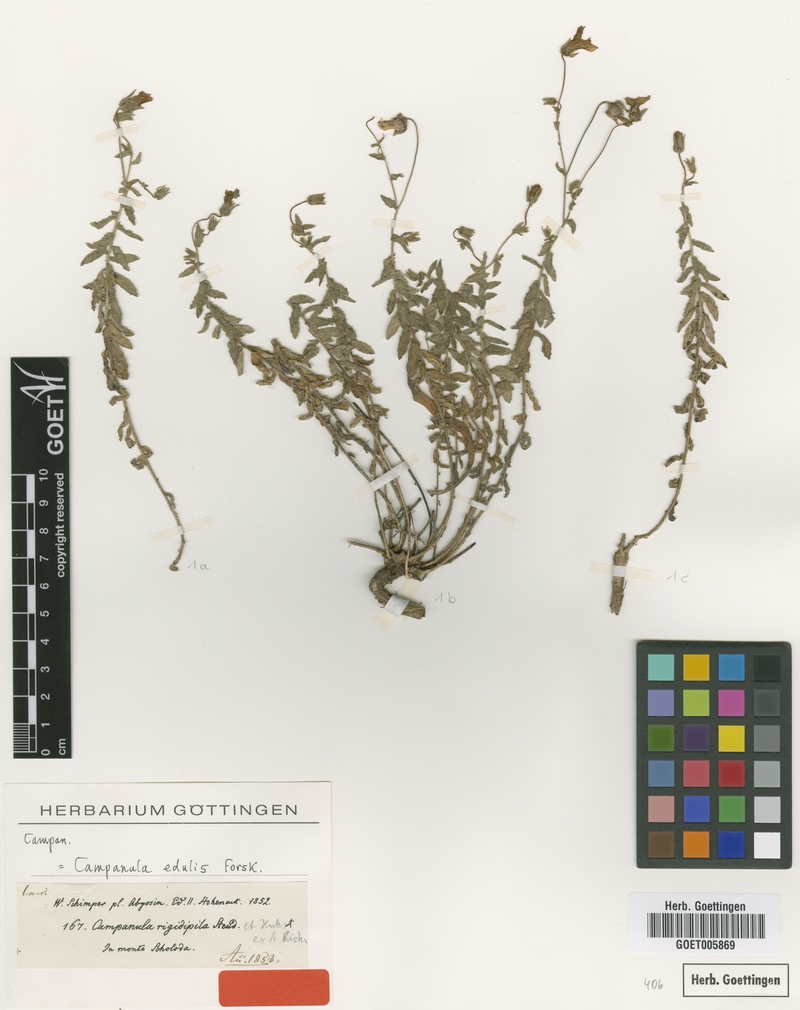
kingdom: Plantae
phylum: Tracheophyta
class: Magnoliopsida
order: Asterales
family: Campanulaceae
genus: Campanula
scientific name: Campanula edulis
